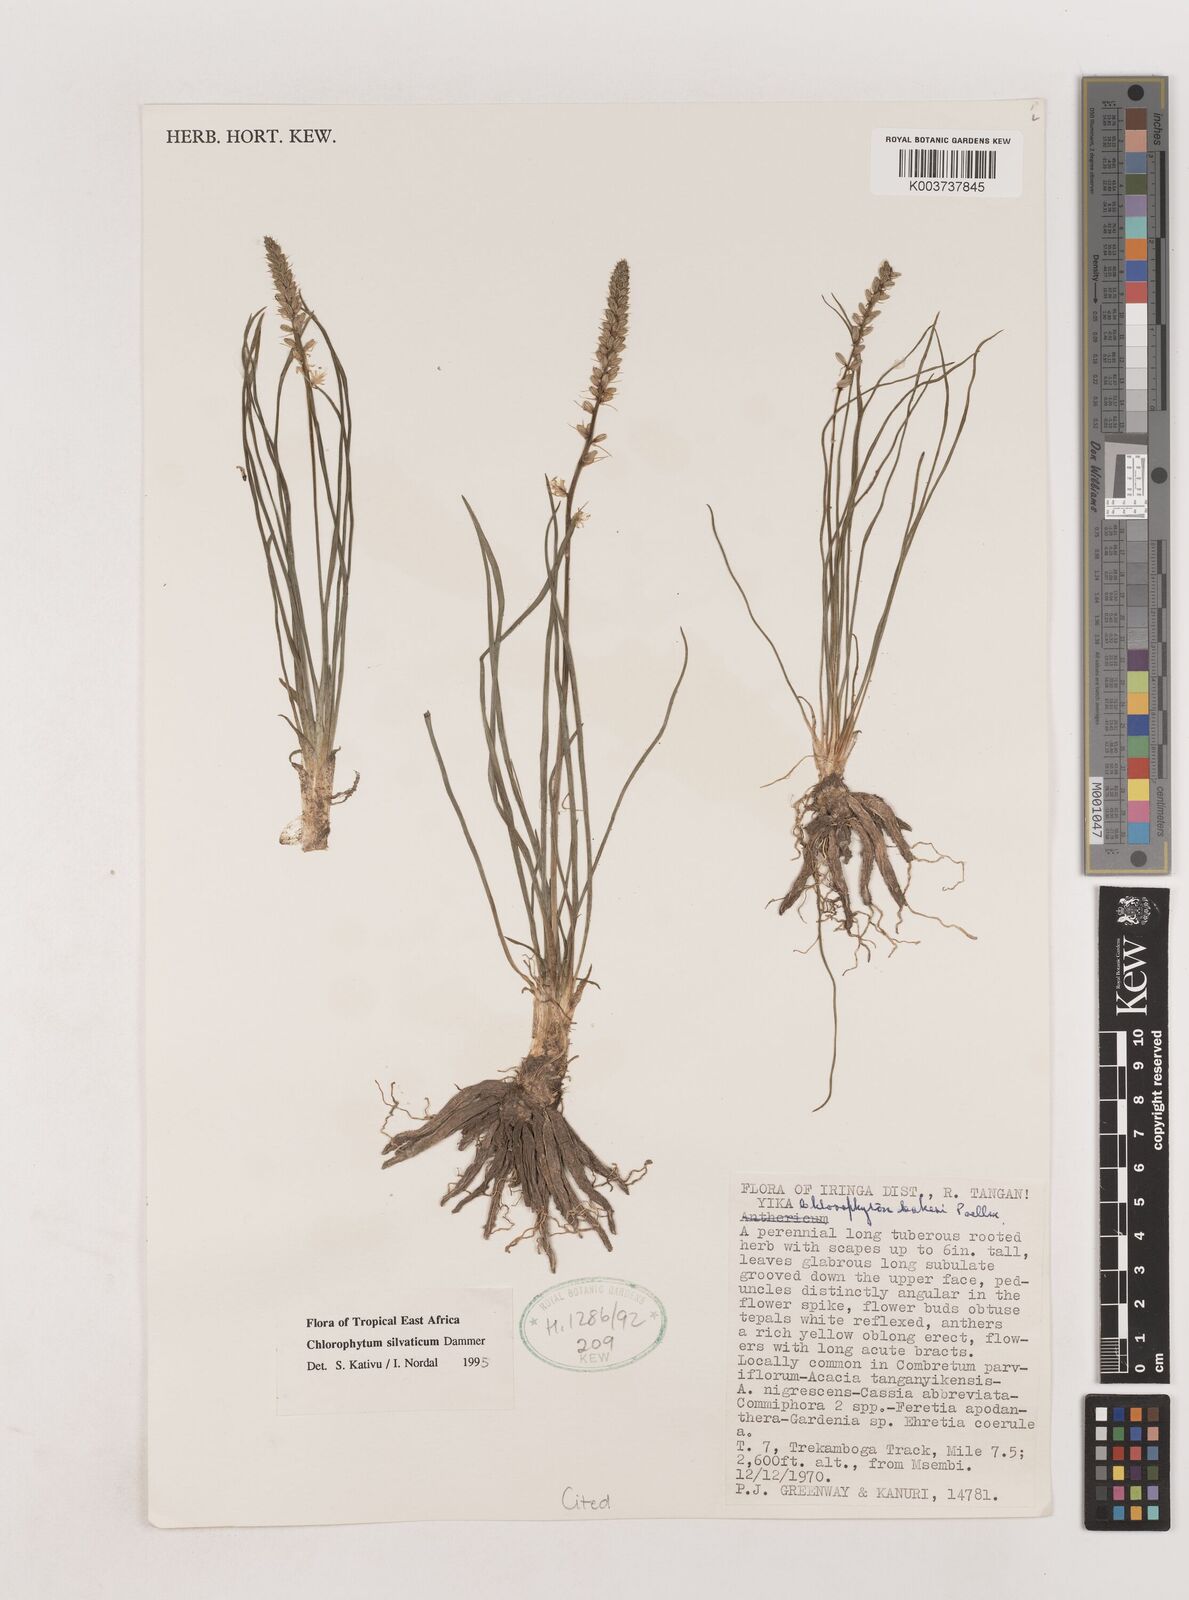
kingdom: Plantae
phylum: Tracheophyta
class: Liliopsida
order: Asparagales
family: Asparagaceae
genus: Chlorophytum
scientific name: Chlorophytum africanum
